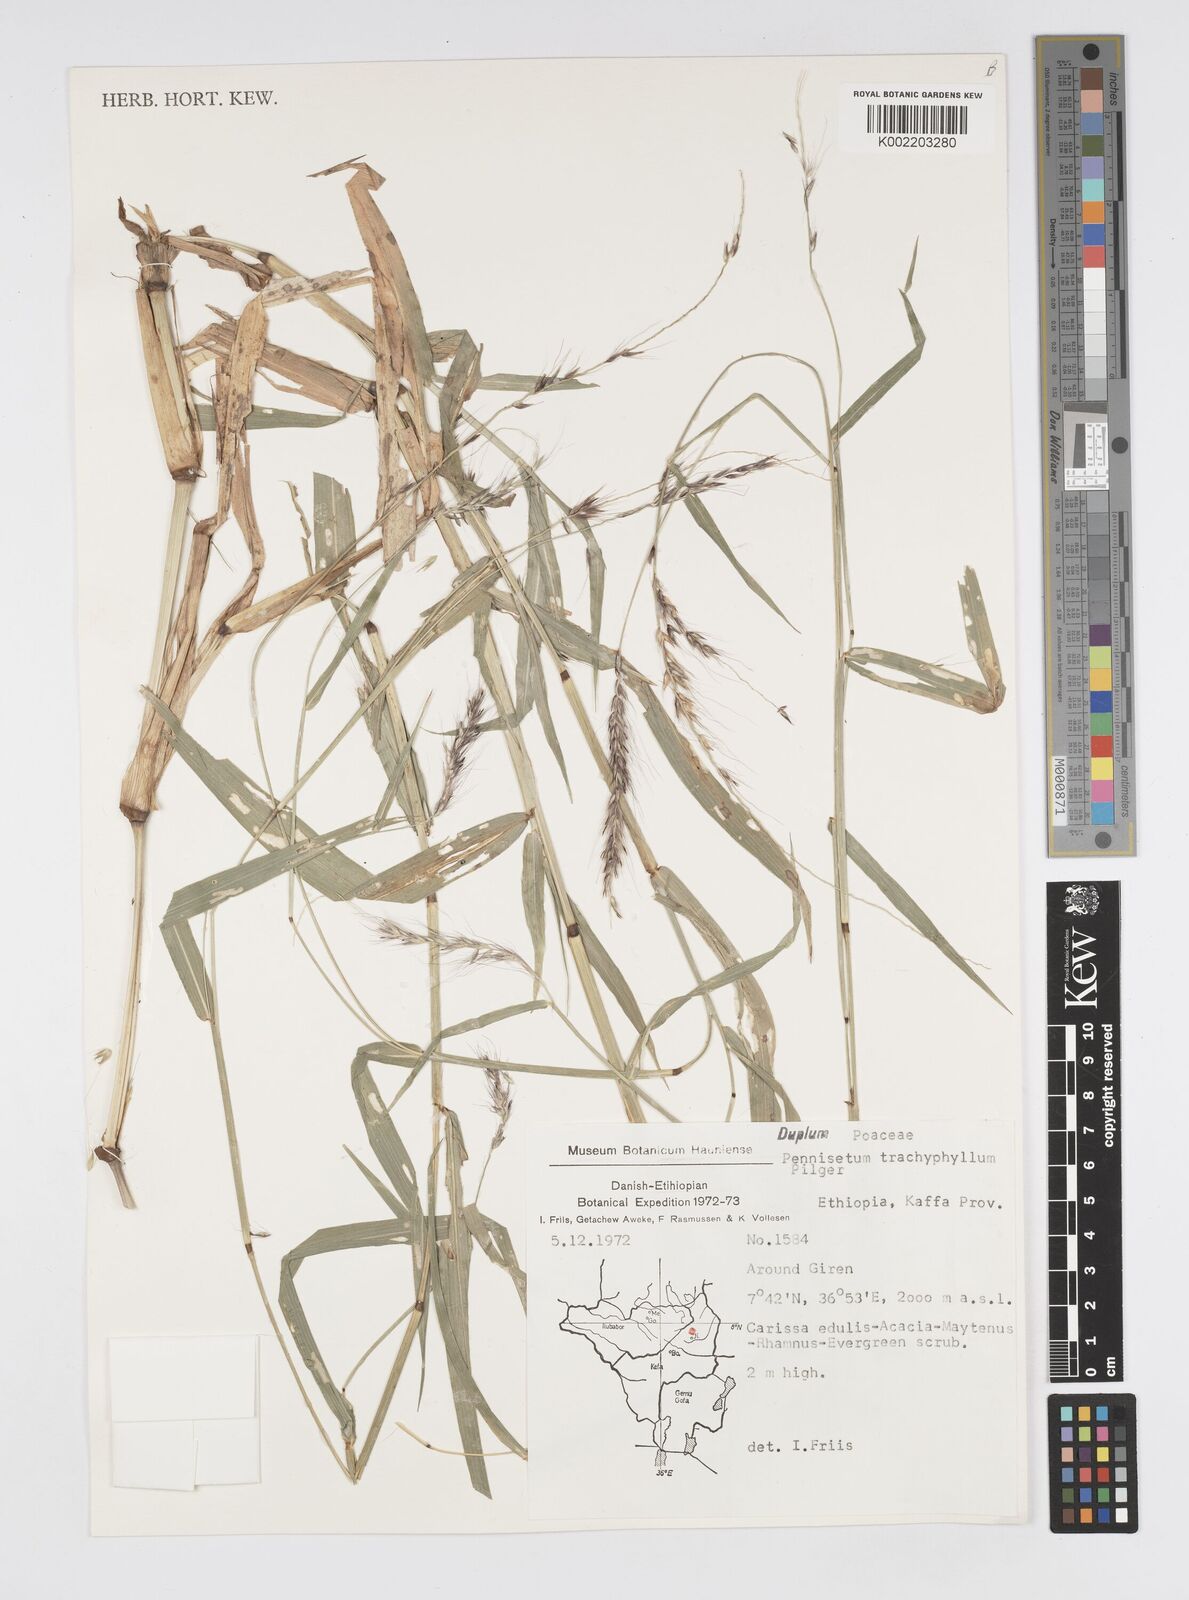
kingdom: Plantae
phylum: Tracheophyta
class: Liliopsida
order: Poales
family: Poaceae
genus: Cenchrus
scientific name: Cenchrus trachyphyllus
